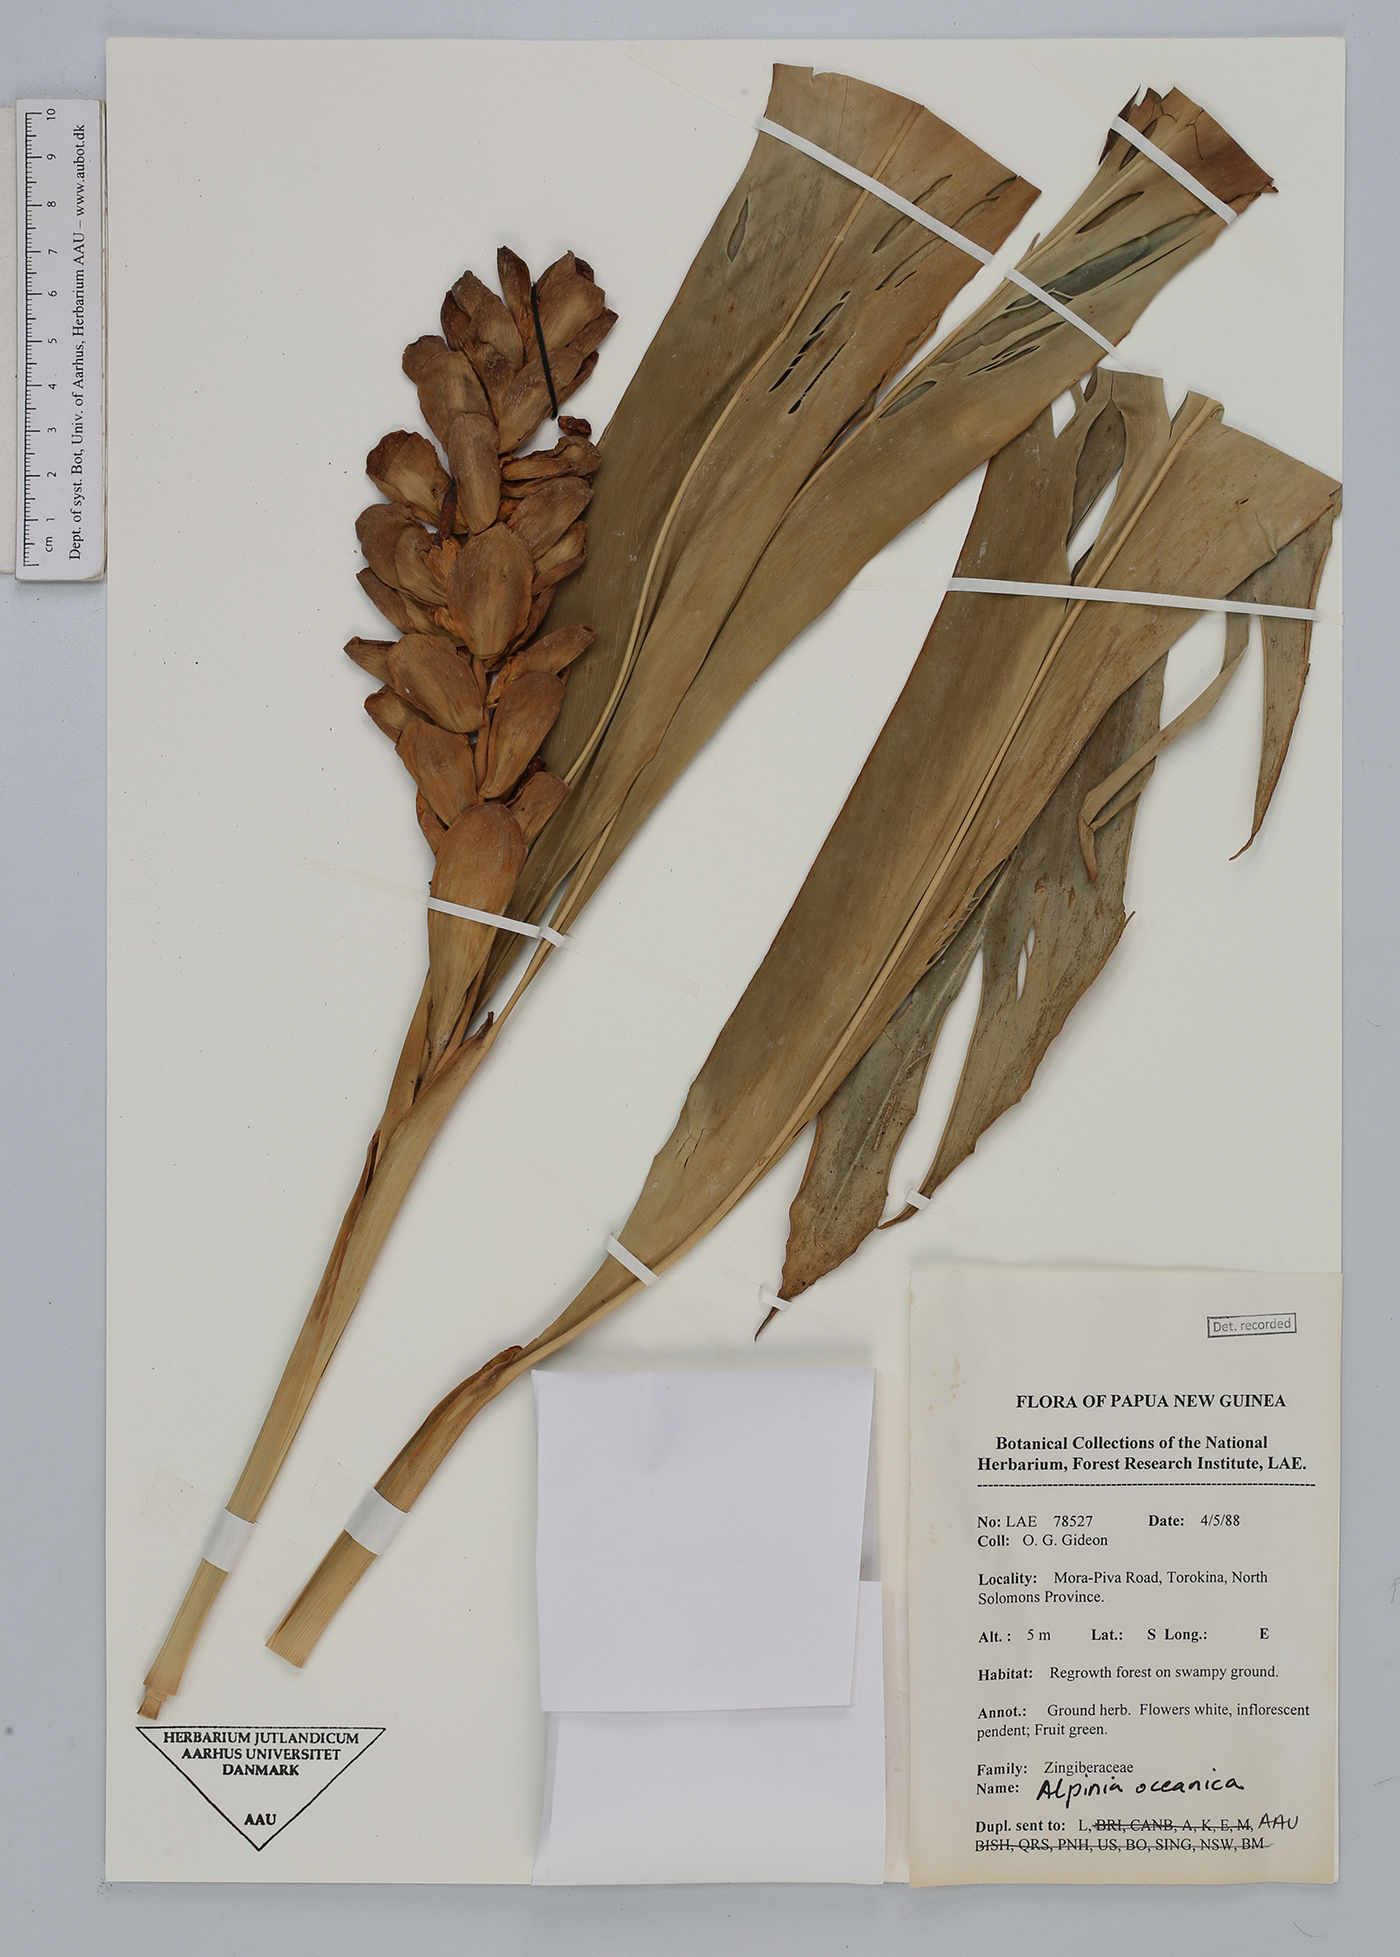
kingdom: Plantae
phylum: Tracheophyta
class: Liliopsida
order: Zingiberales
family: Zingiberaceae
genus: Alpinia
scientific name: Alpinia oceanica
